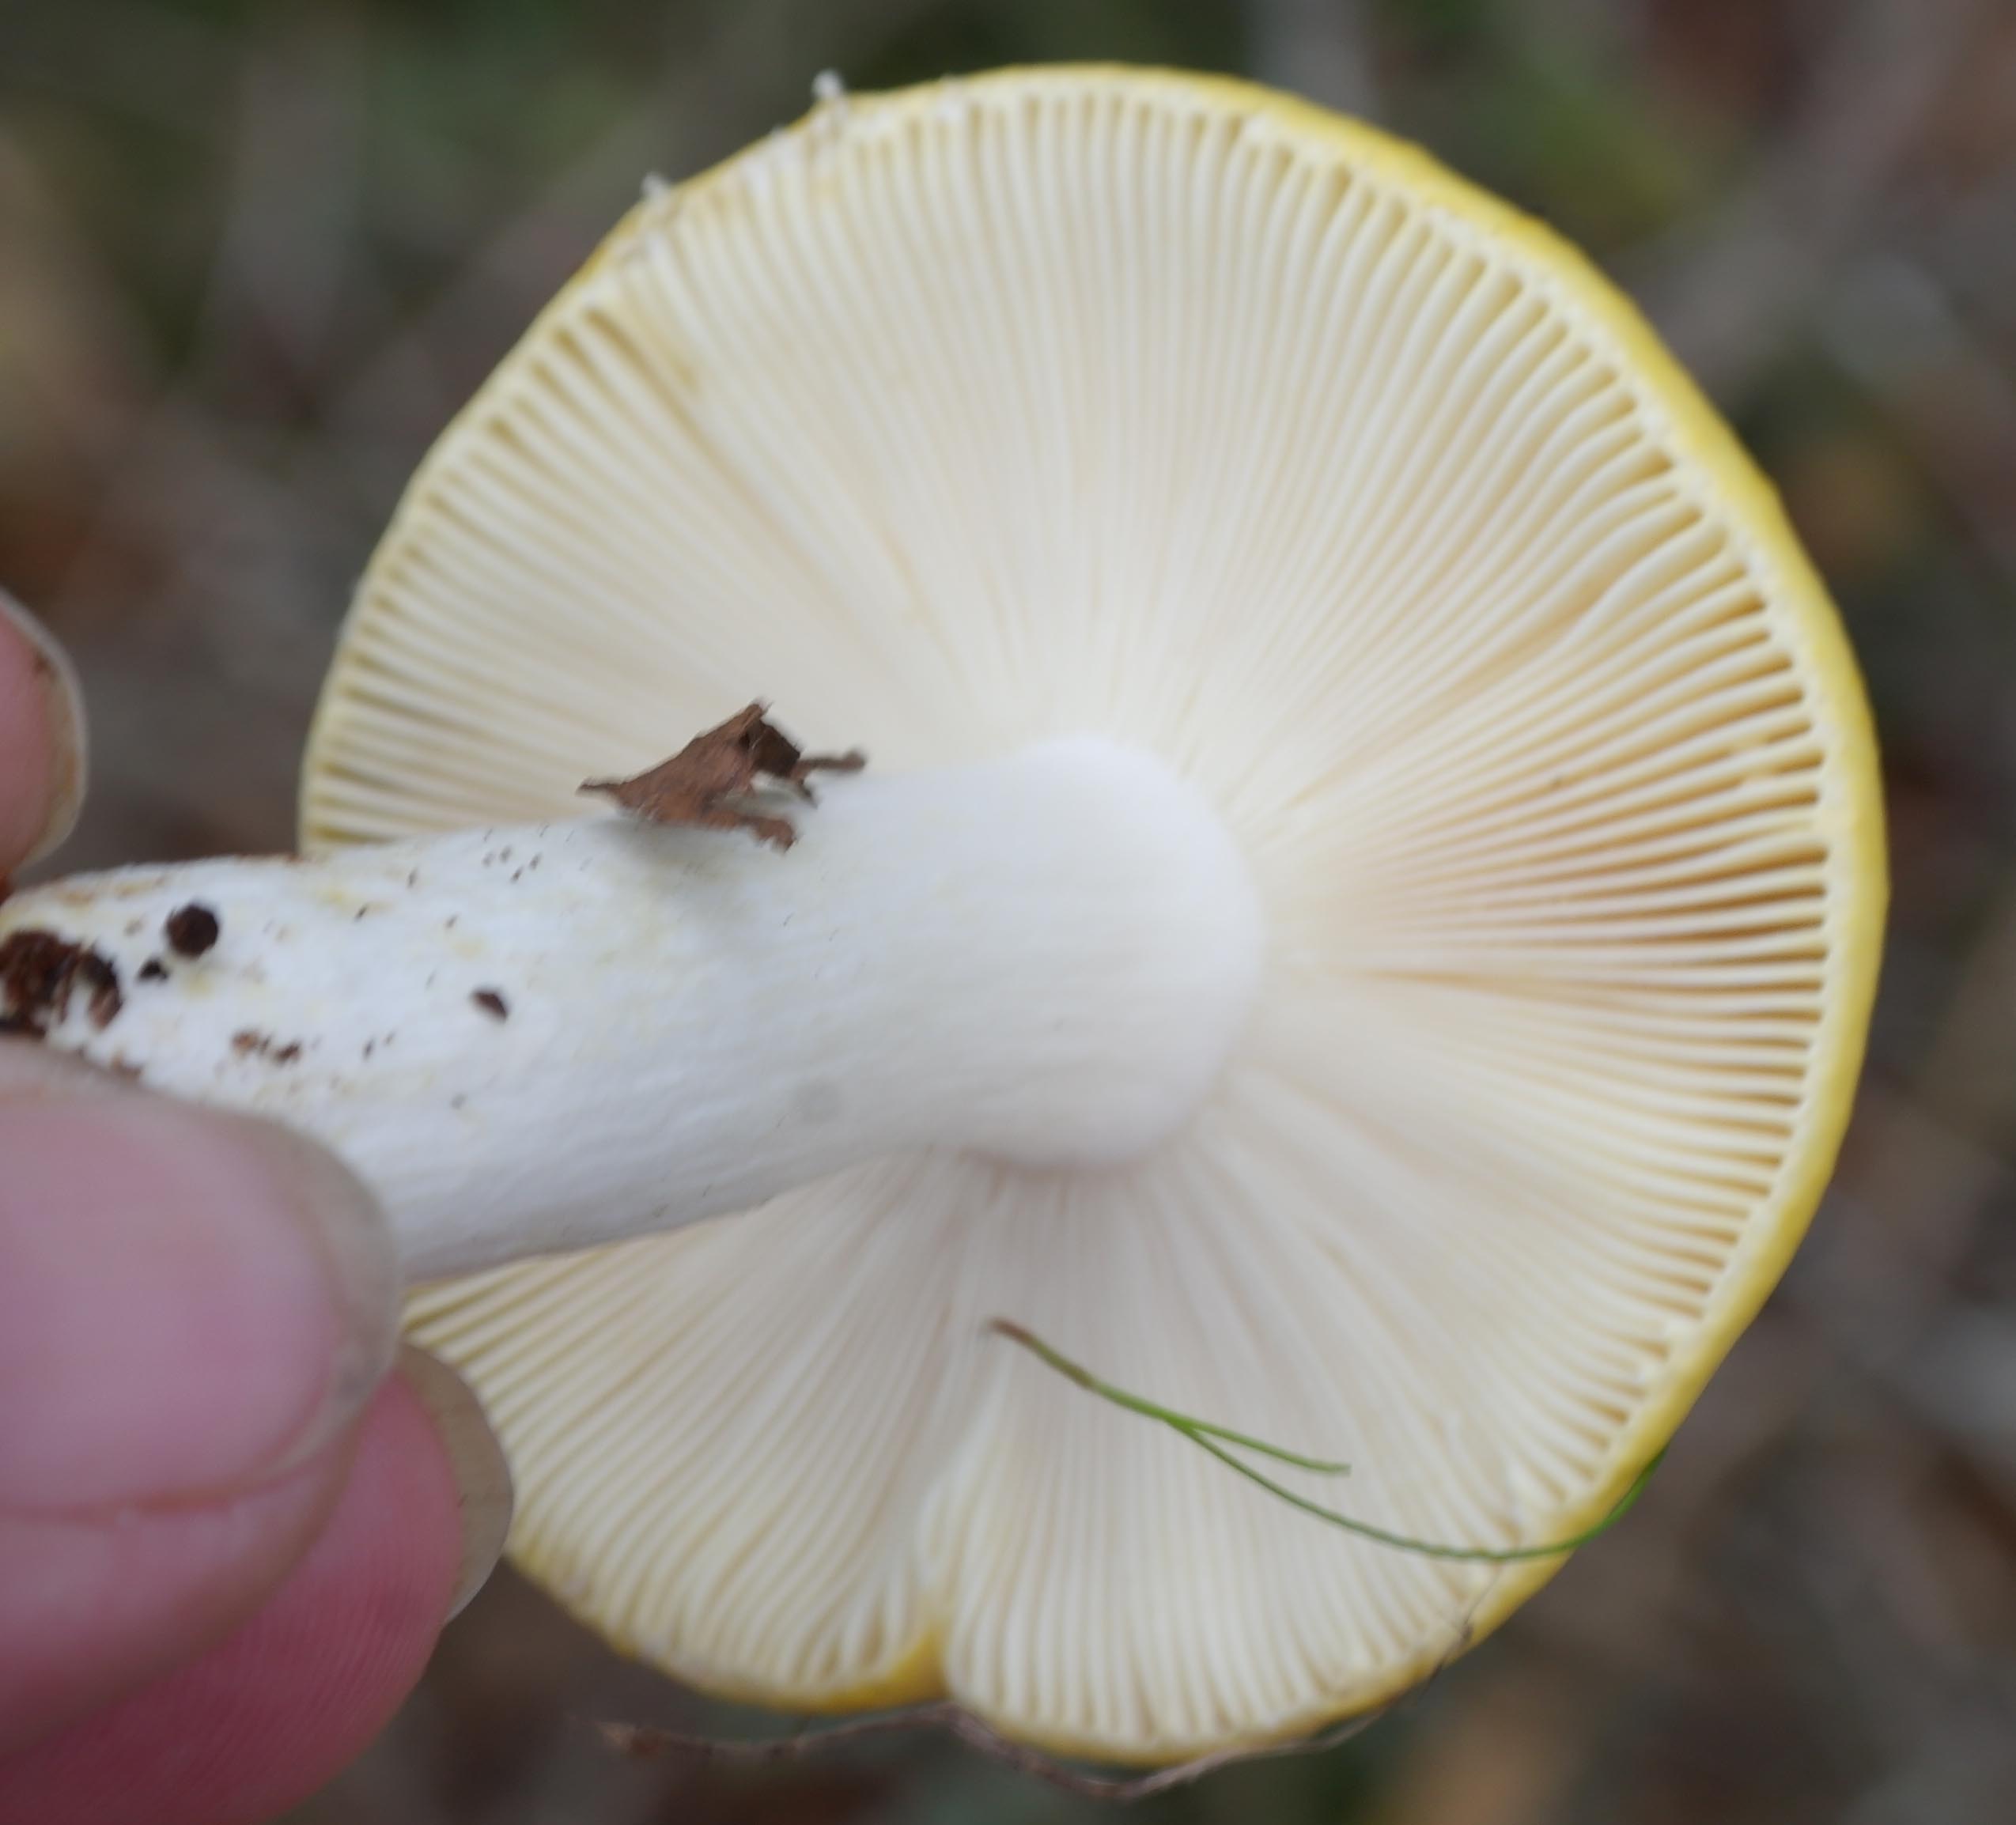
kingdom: Fungi
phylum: Basidiomycota
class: Agaricomycetes
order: Russulales
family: Russulaceae
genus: Russula
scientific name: Russula claroflava
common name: birke-skørhat
